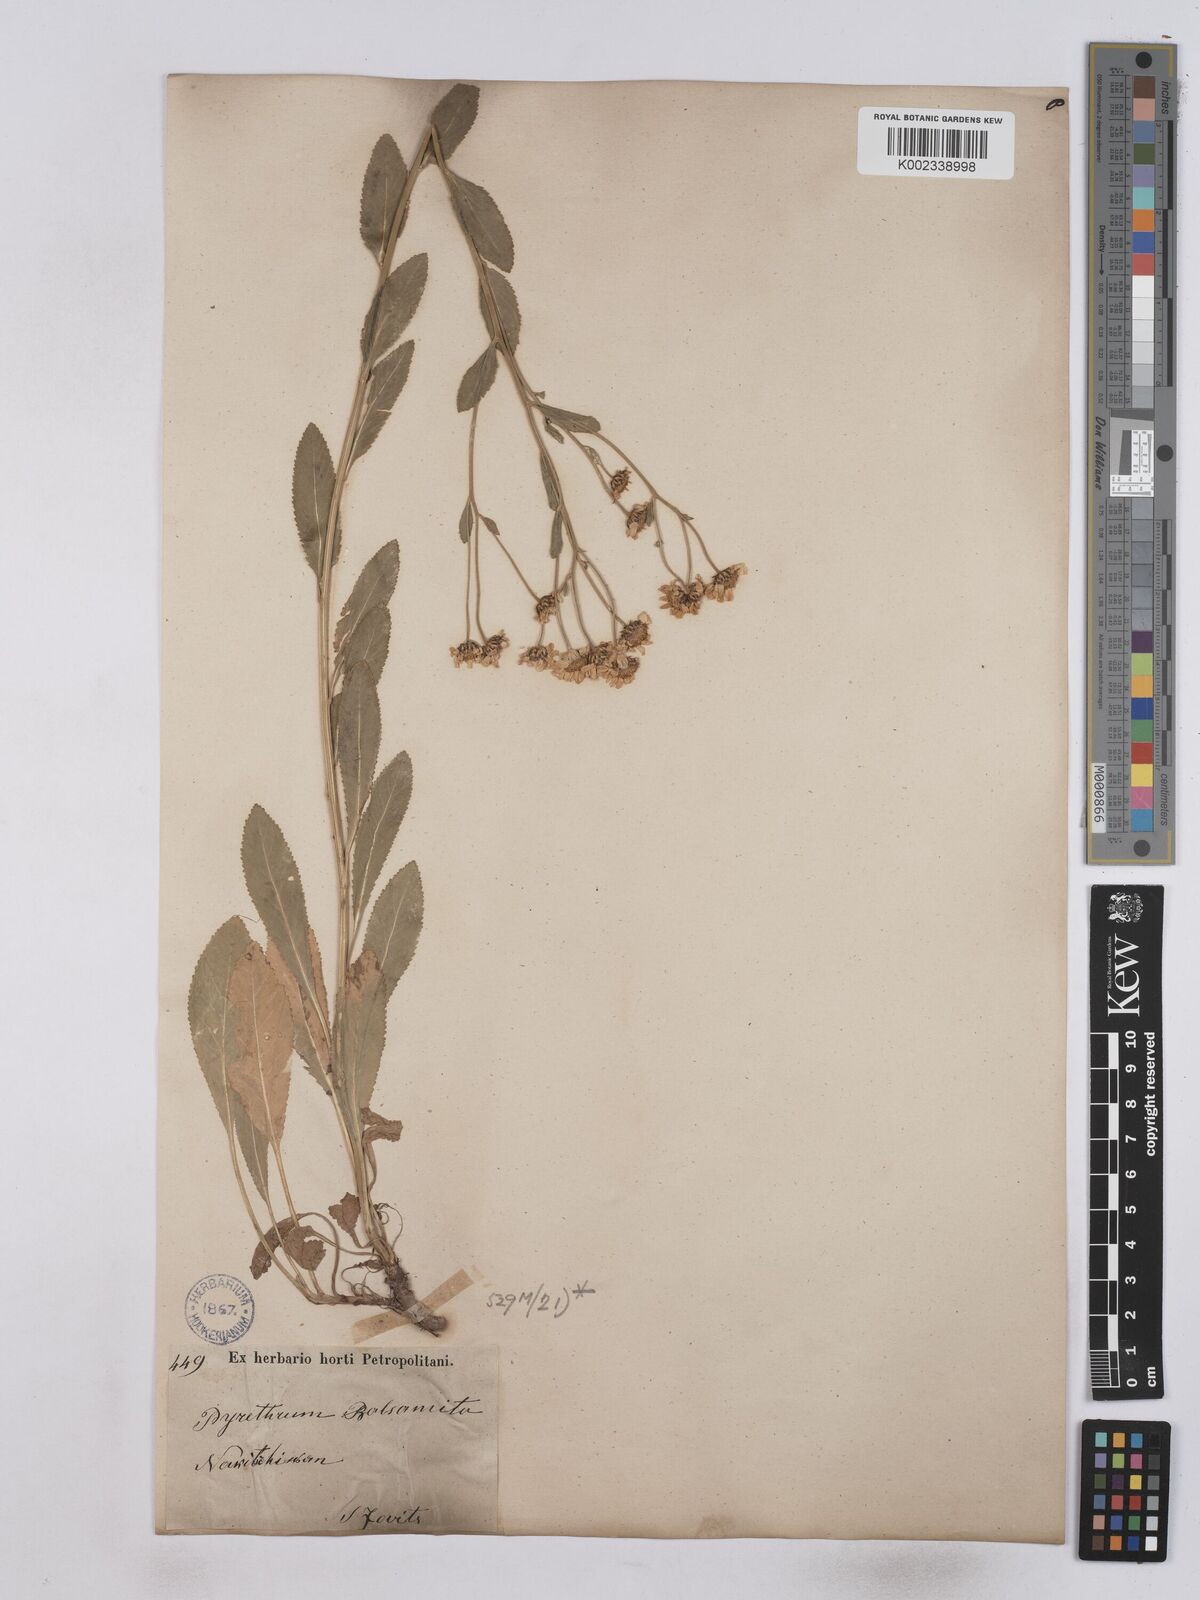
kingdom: Plantae
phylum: Tracheophyta
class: Magnoliopsida
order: Asterales
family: Asteraceae
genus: Tanacetum
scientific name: Tanacetum balsamita
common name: Costmary
